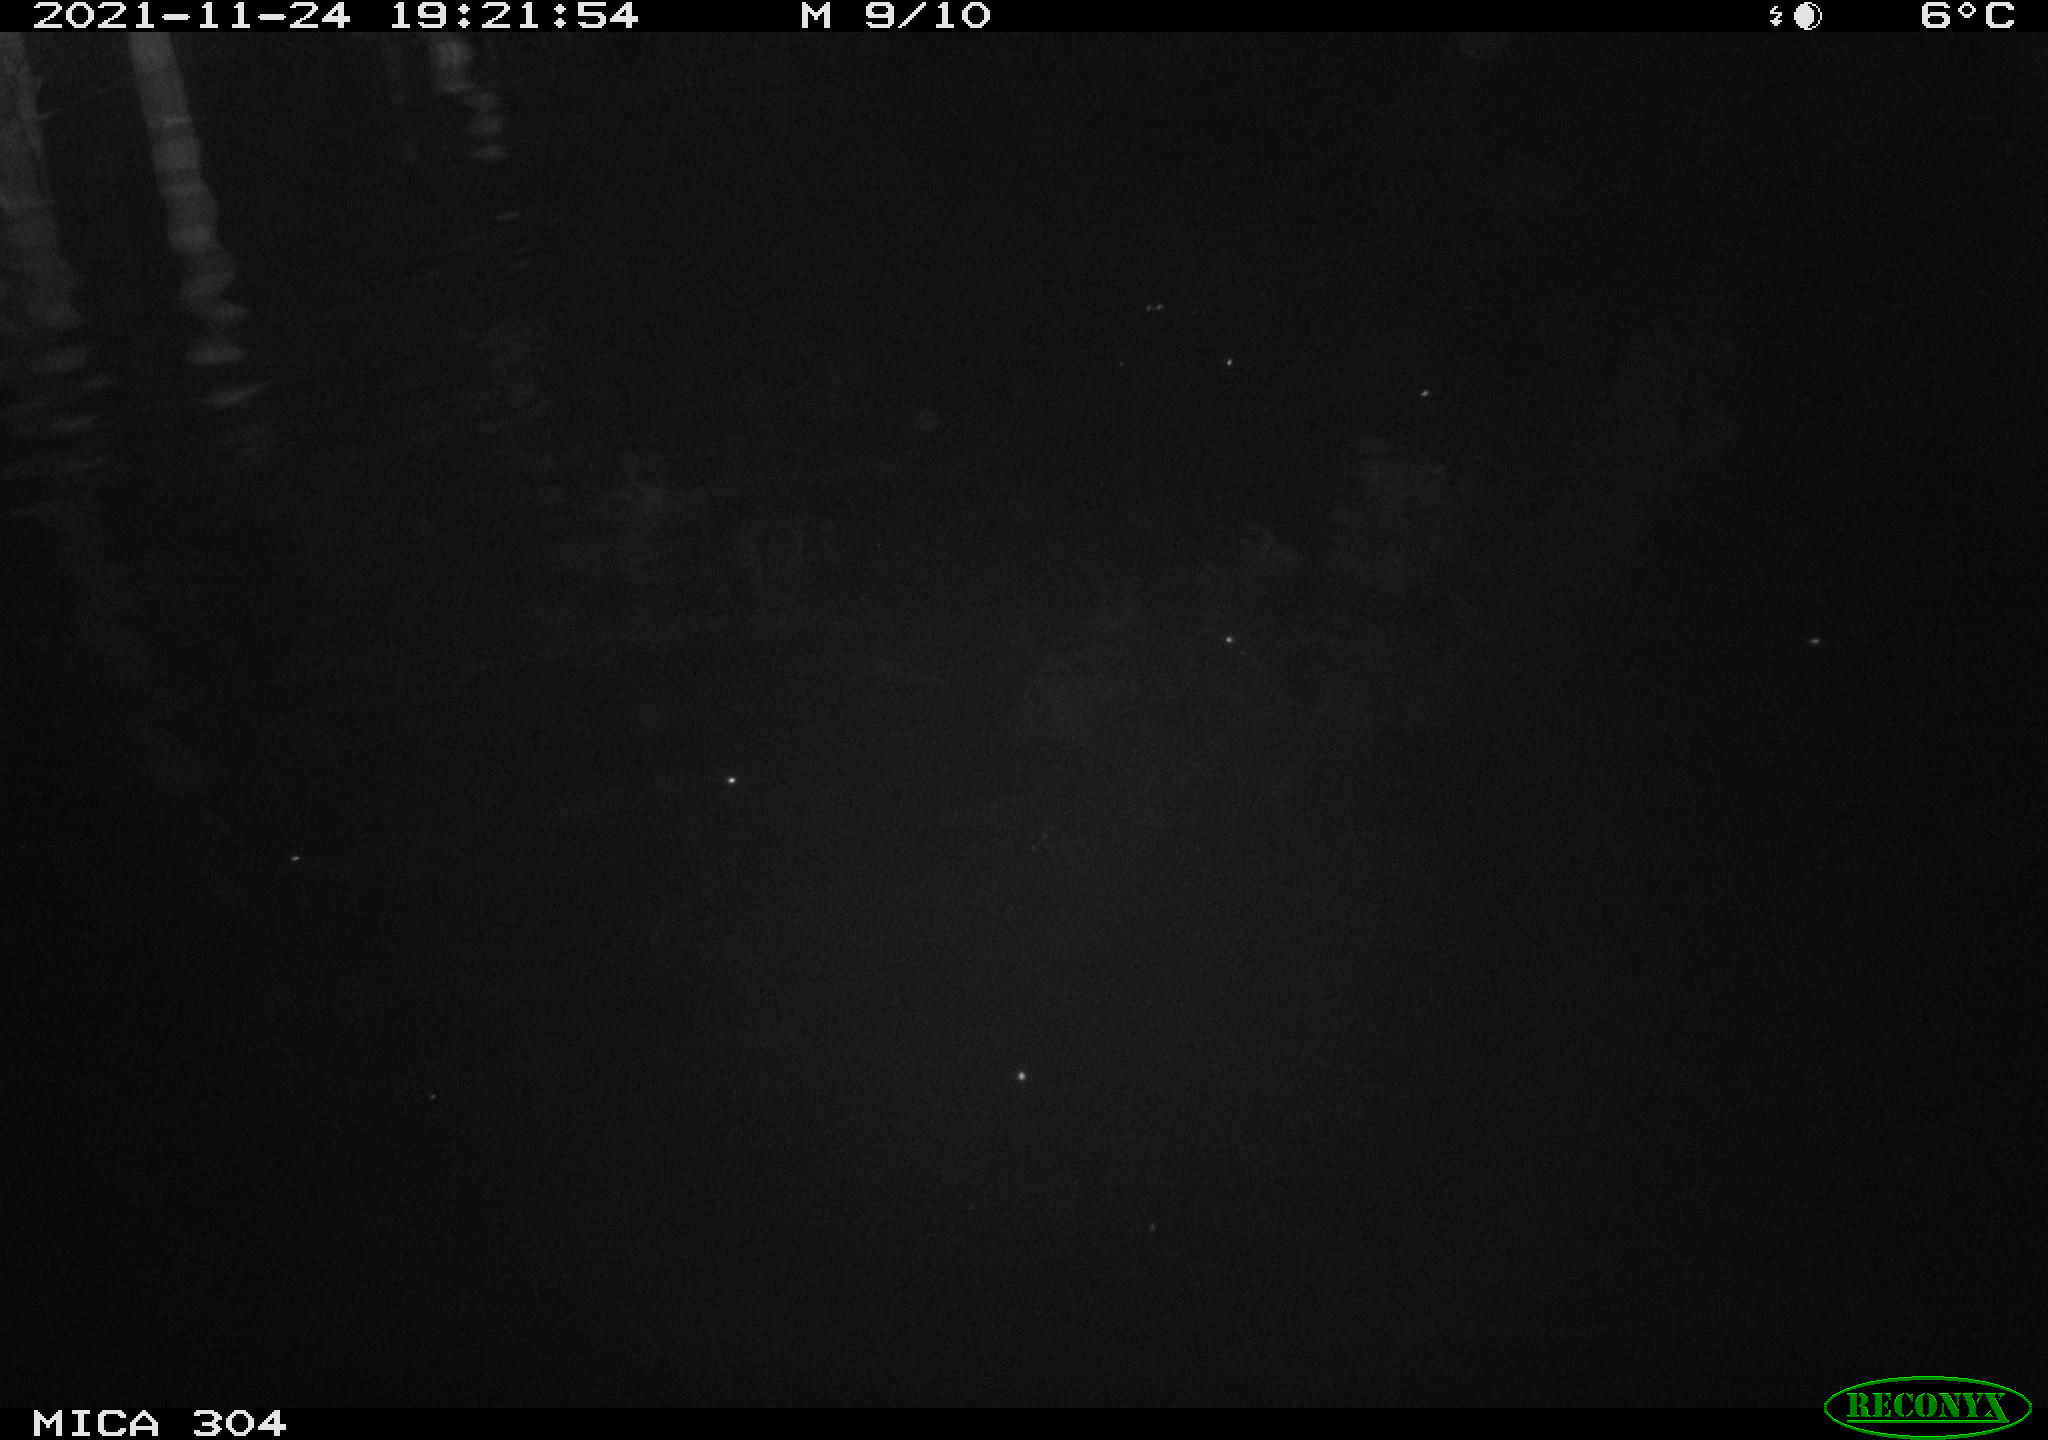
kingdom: Animalia
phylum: Chordata
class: Mammalia
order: Rodentia
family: Muridae
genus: Rattus
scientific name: Rattus norvegicus
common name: Brown rat
